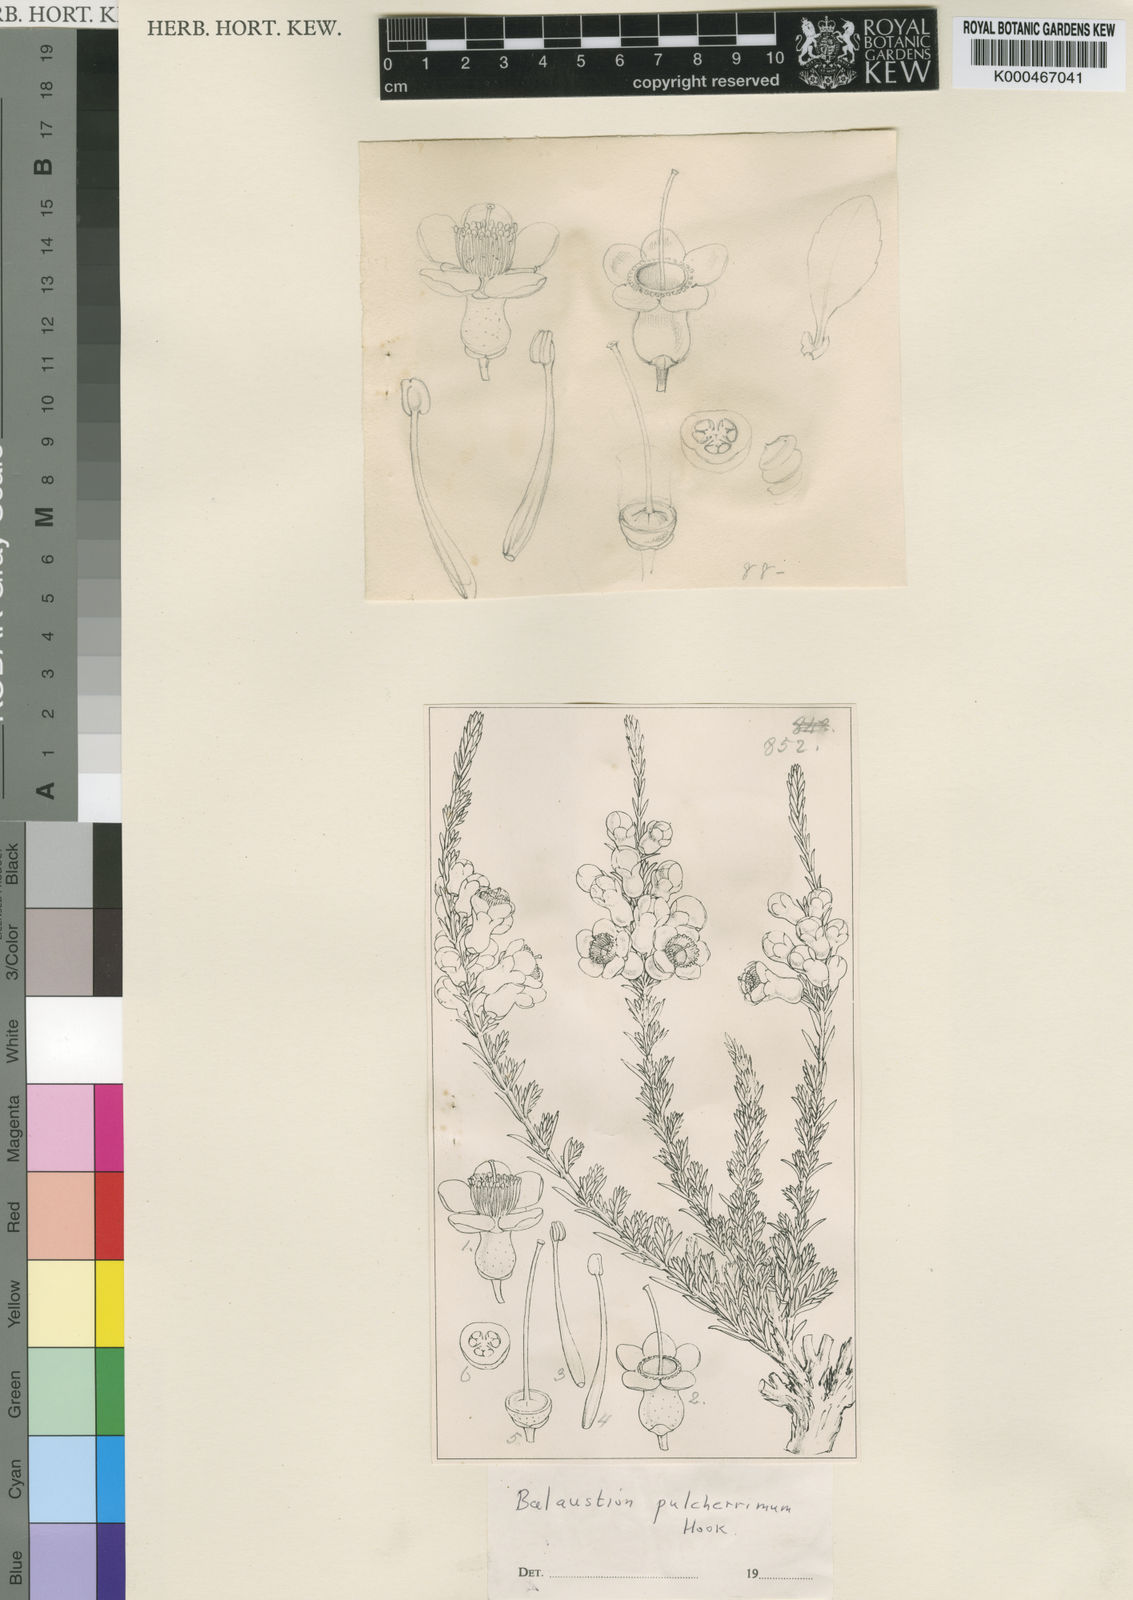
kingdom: Plantae
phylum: Tracheophyta
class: Magnoliopsida
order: Myrtales
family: Myrtaceae
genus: Balaustion
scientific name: Balaustion pulcherrimum
